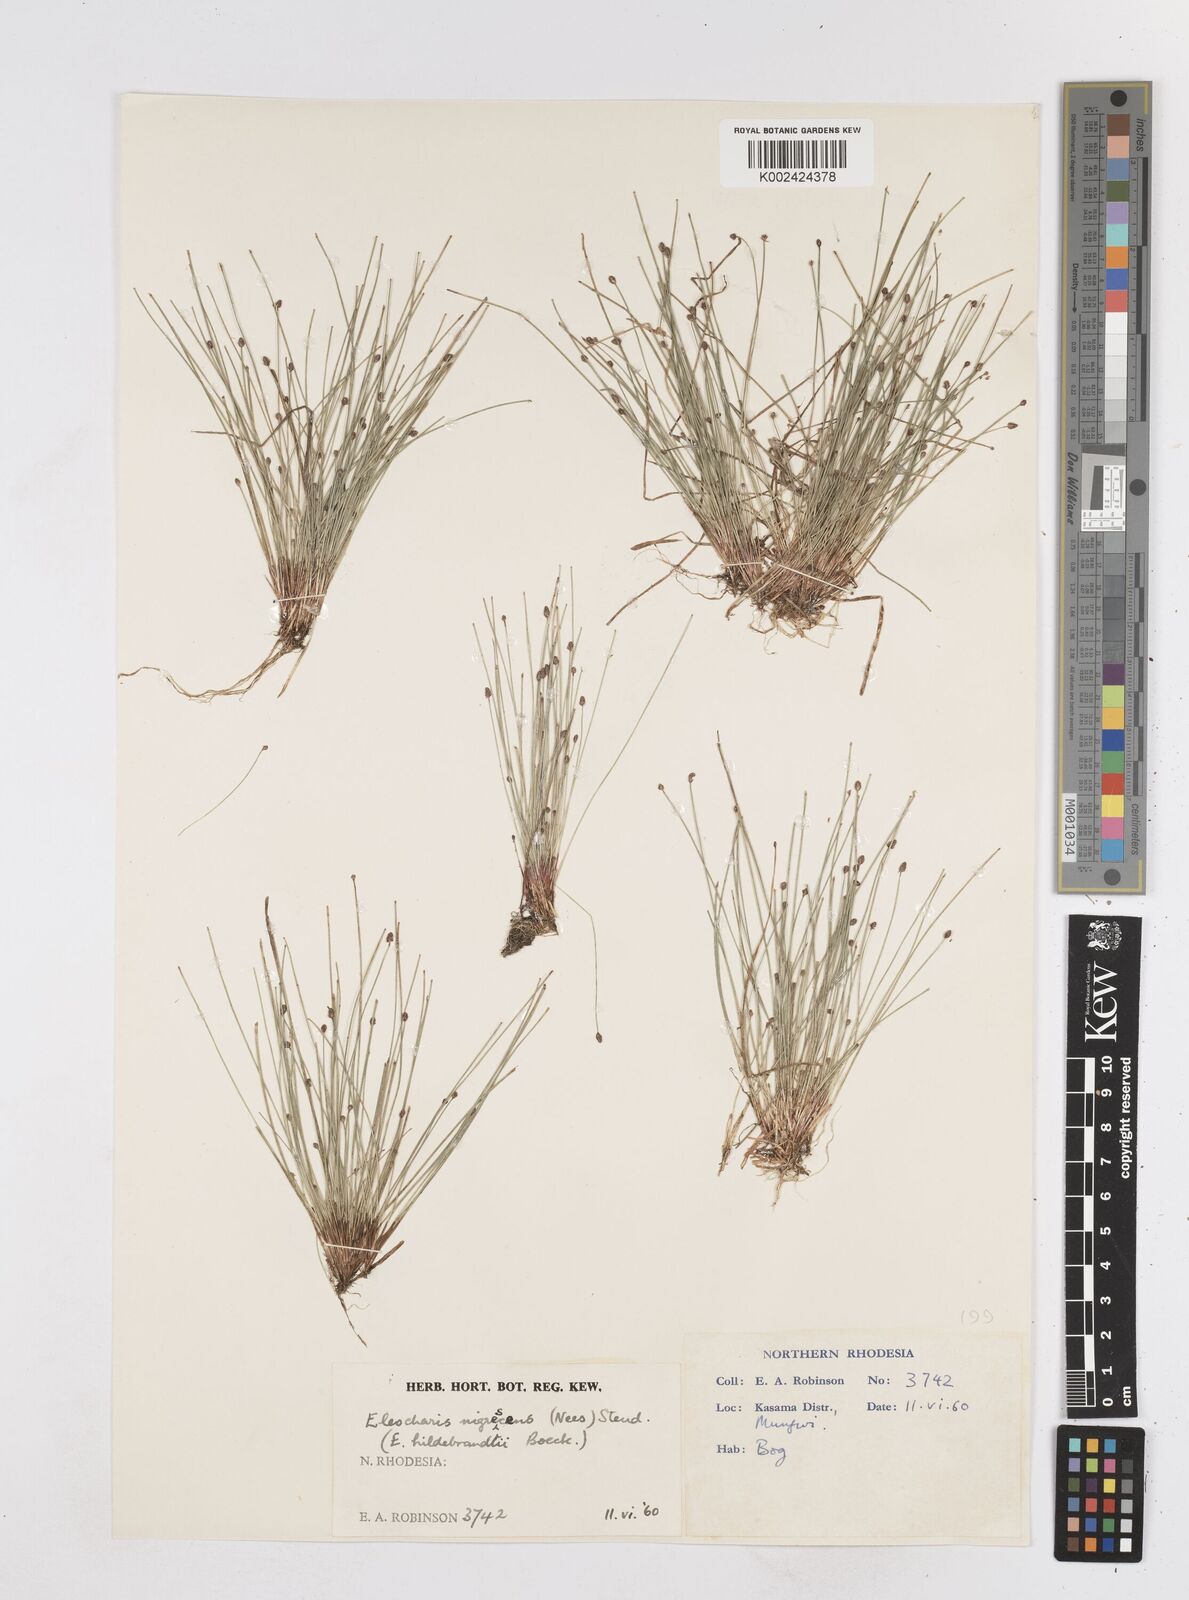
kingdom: Plantae
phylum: Tracheophyta
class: Liliopsida
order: Poales
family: Cyperaceae
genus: Eleocharis
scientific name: Eleocharis nigrescens
